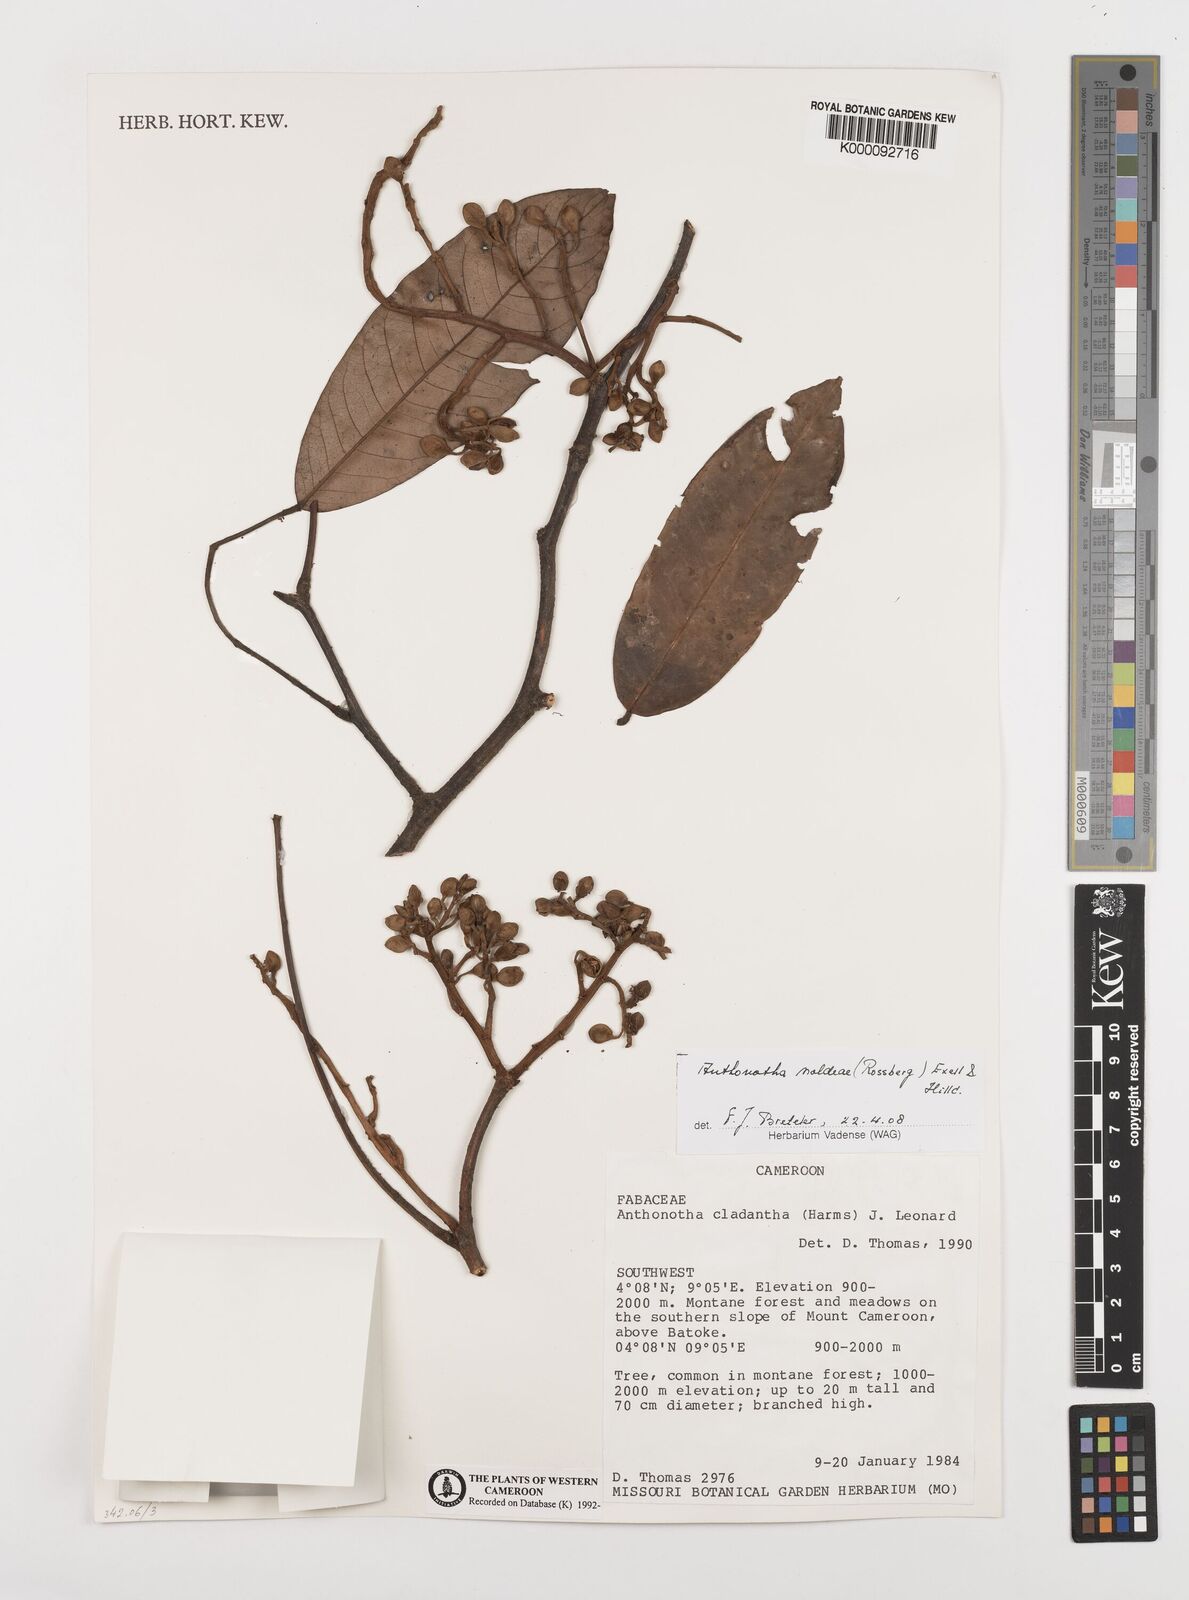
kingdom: Plantae
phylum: Tracheophyta
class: Magnoliopsida
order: Fabales
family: Fabaceae
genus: Anthonotha
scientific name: Anthonotha noldeae
